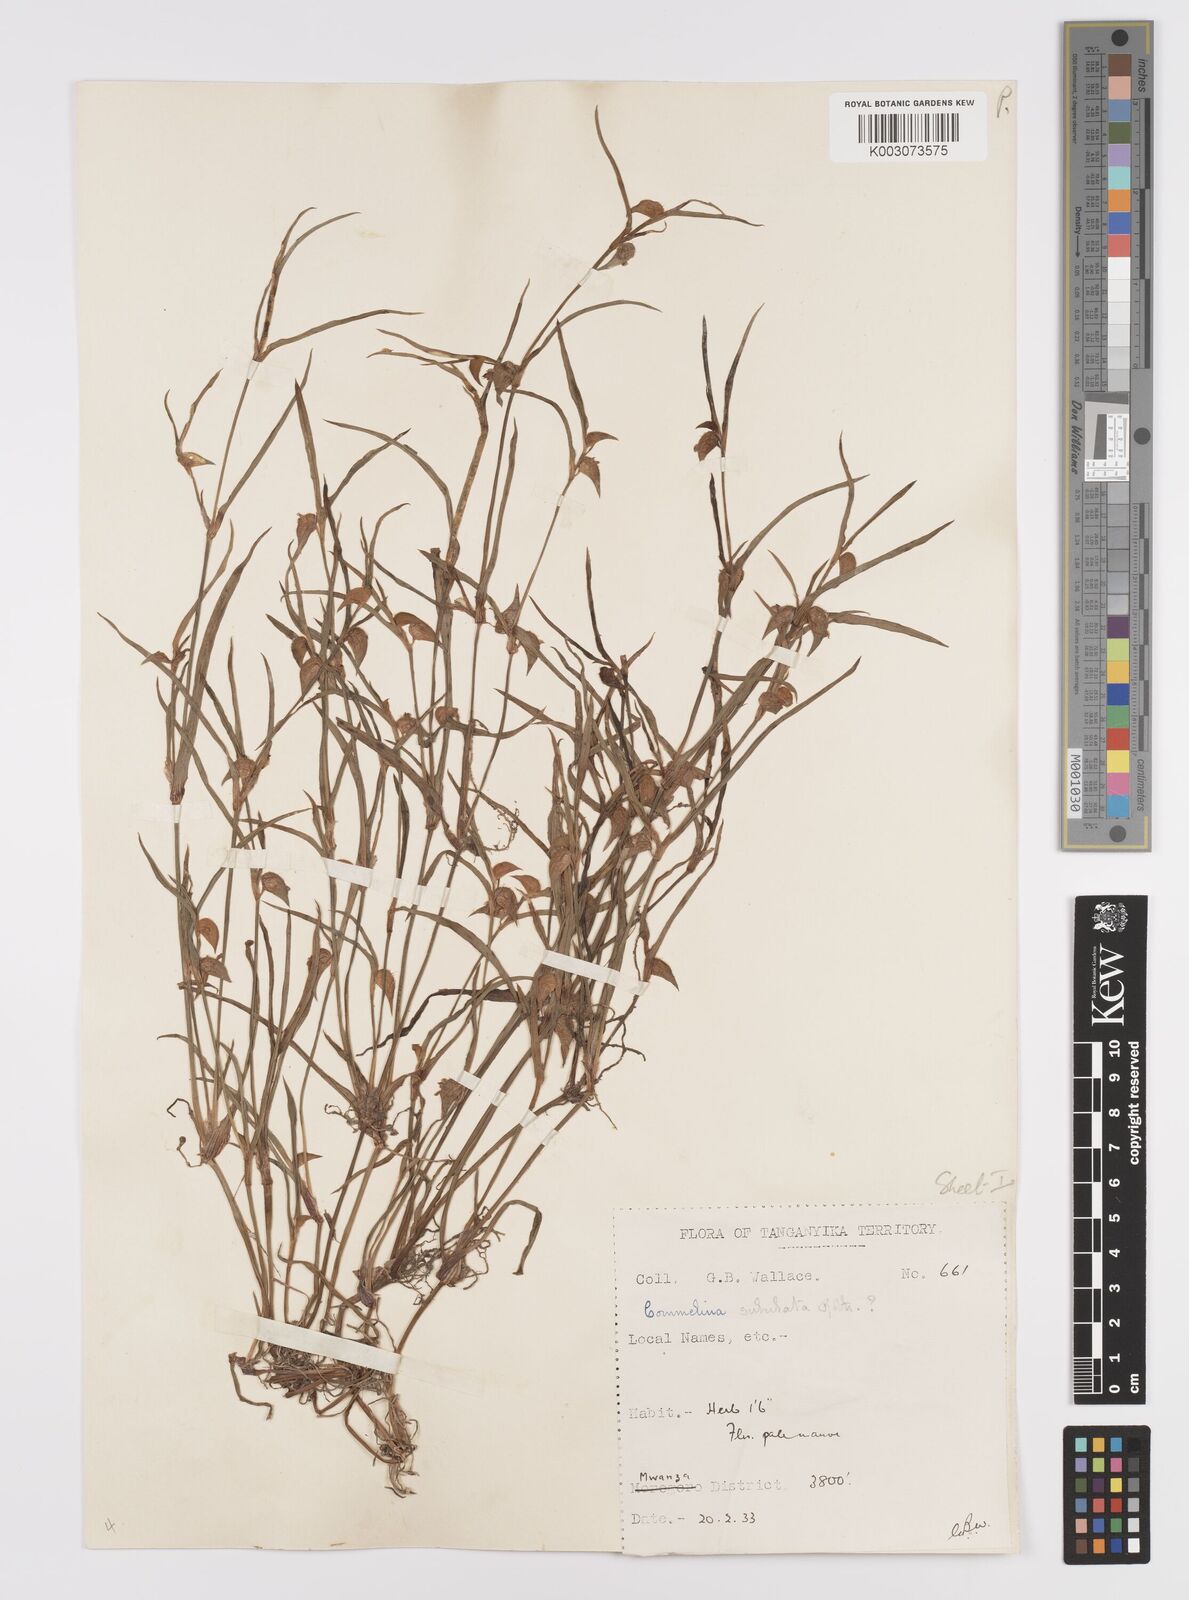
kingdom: Plantae
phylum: Tracheophyta
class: Liliopsida
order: Commelinales
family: Commelinaceae
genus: Commelina
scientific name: Commelina subulata
